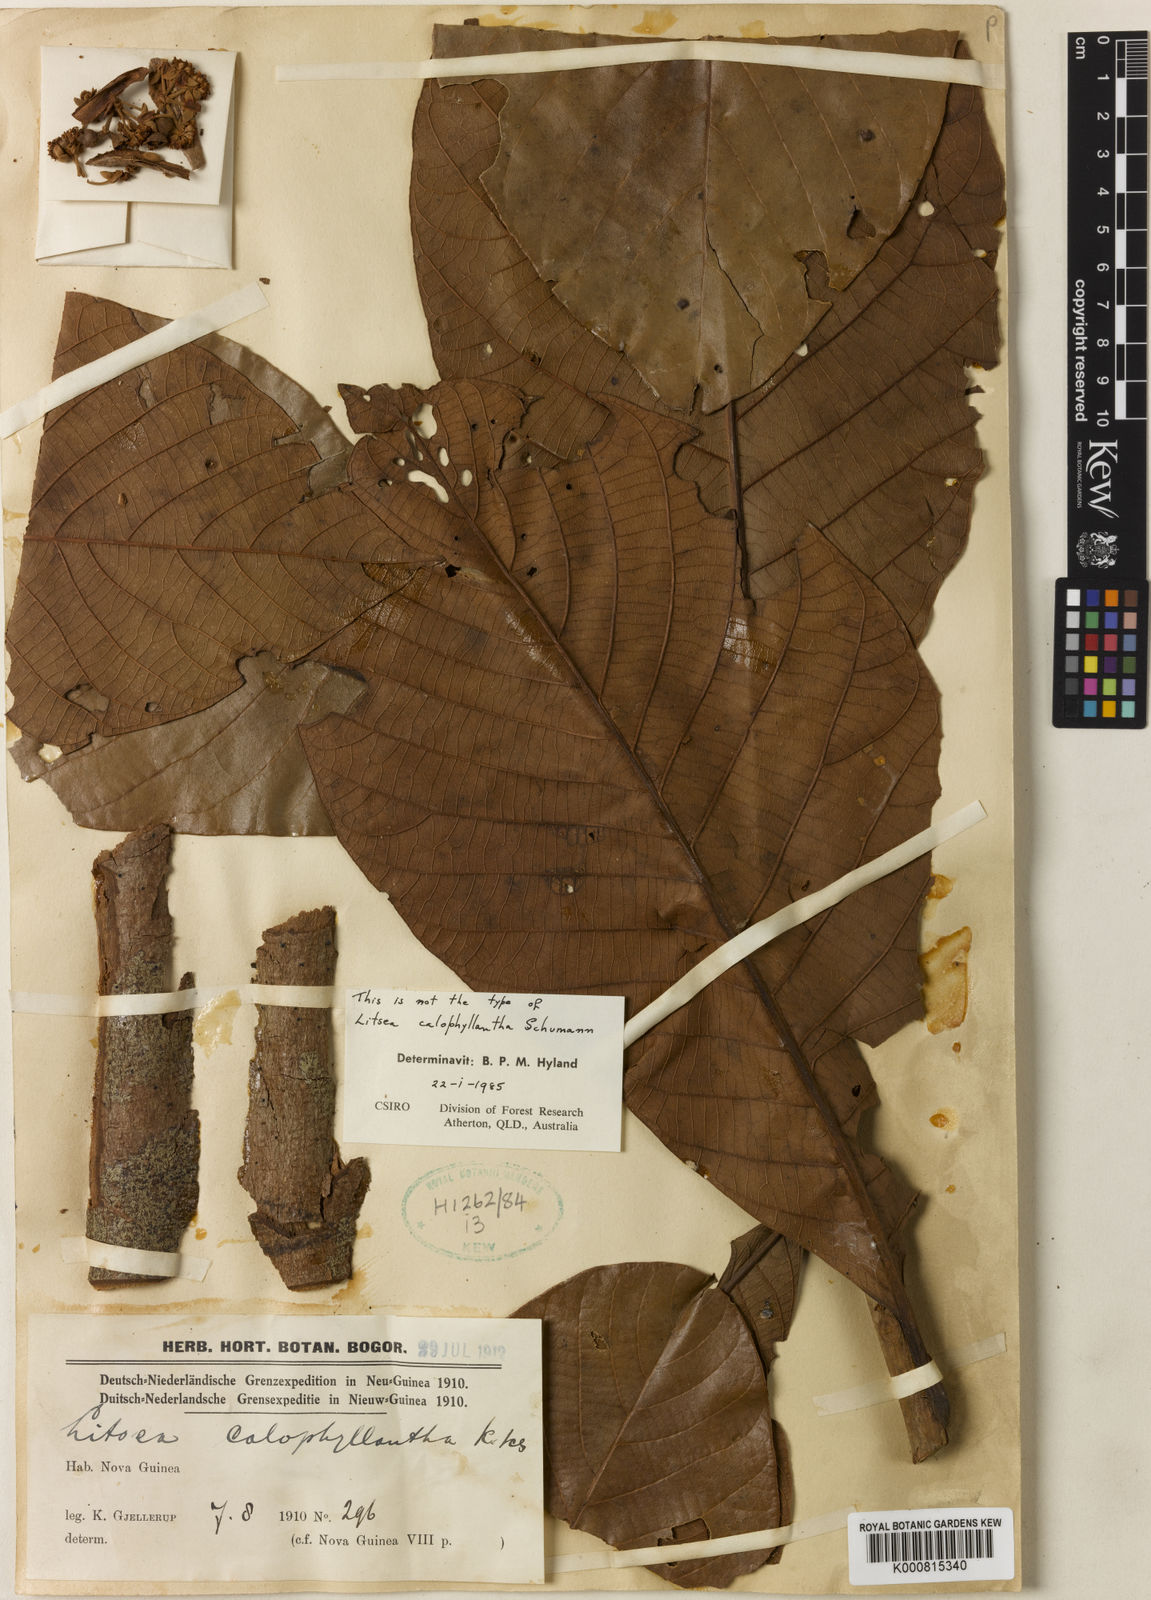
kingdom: Plantae
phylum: Tracheophyta
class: Magnoliopsida
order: Laurales
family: Lauraceae
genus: Litsea
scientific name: Litsea calophyllantha
